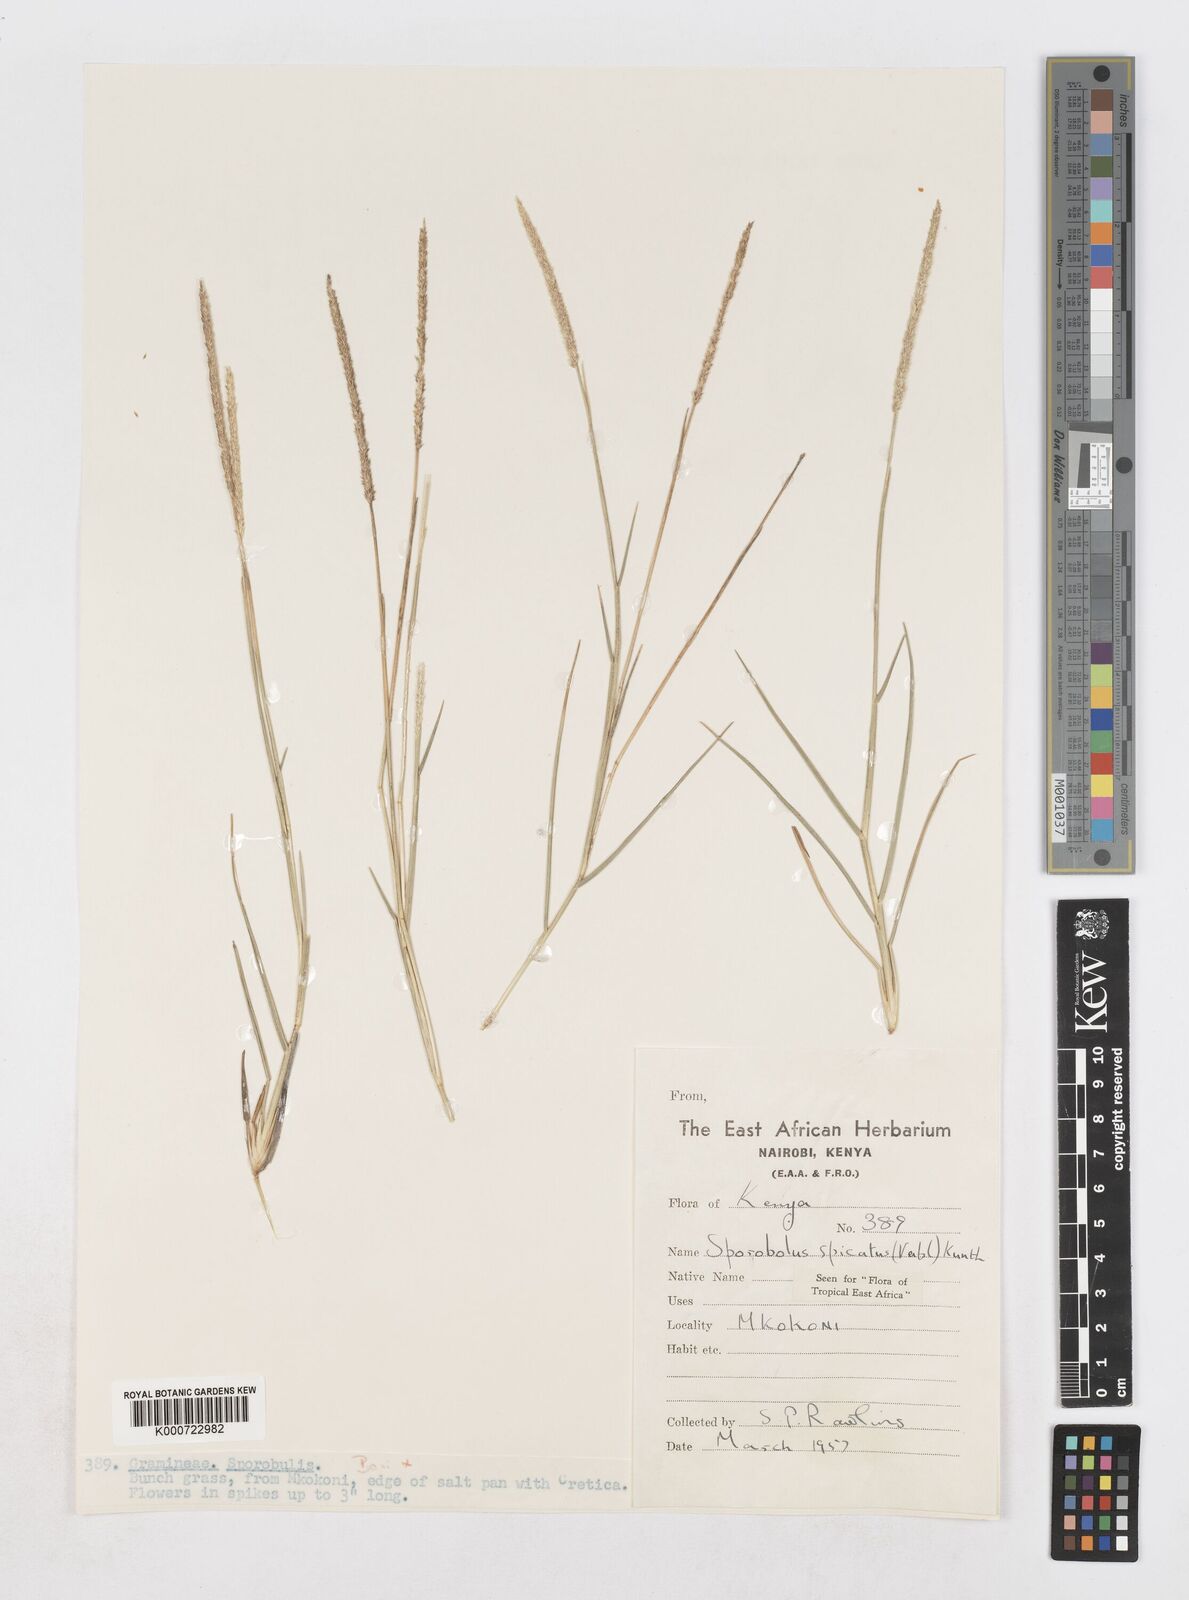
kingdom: Plantae
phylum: Tracheophyta
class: Liliopsida
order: Poales
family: Poaceae
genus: Sporobolus
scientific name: Sporobolus spicatus
